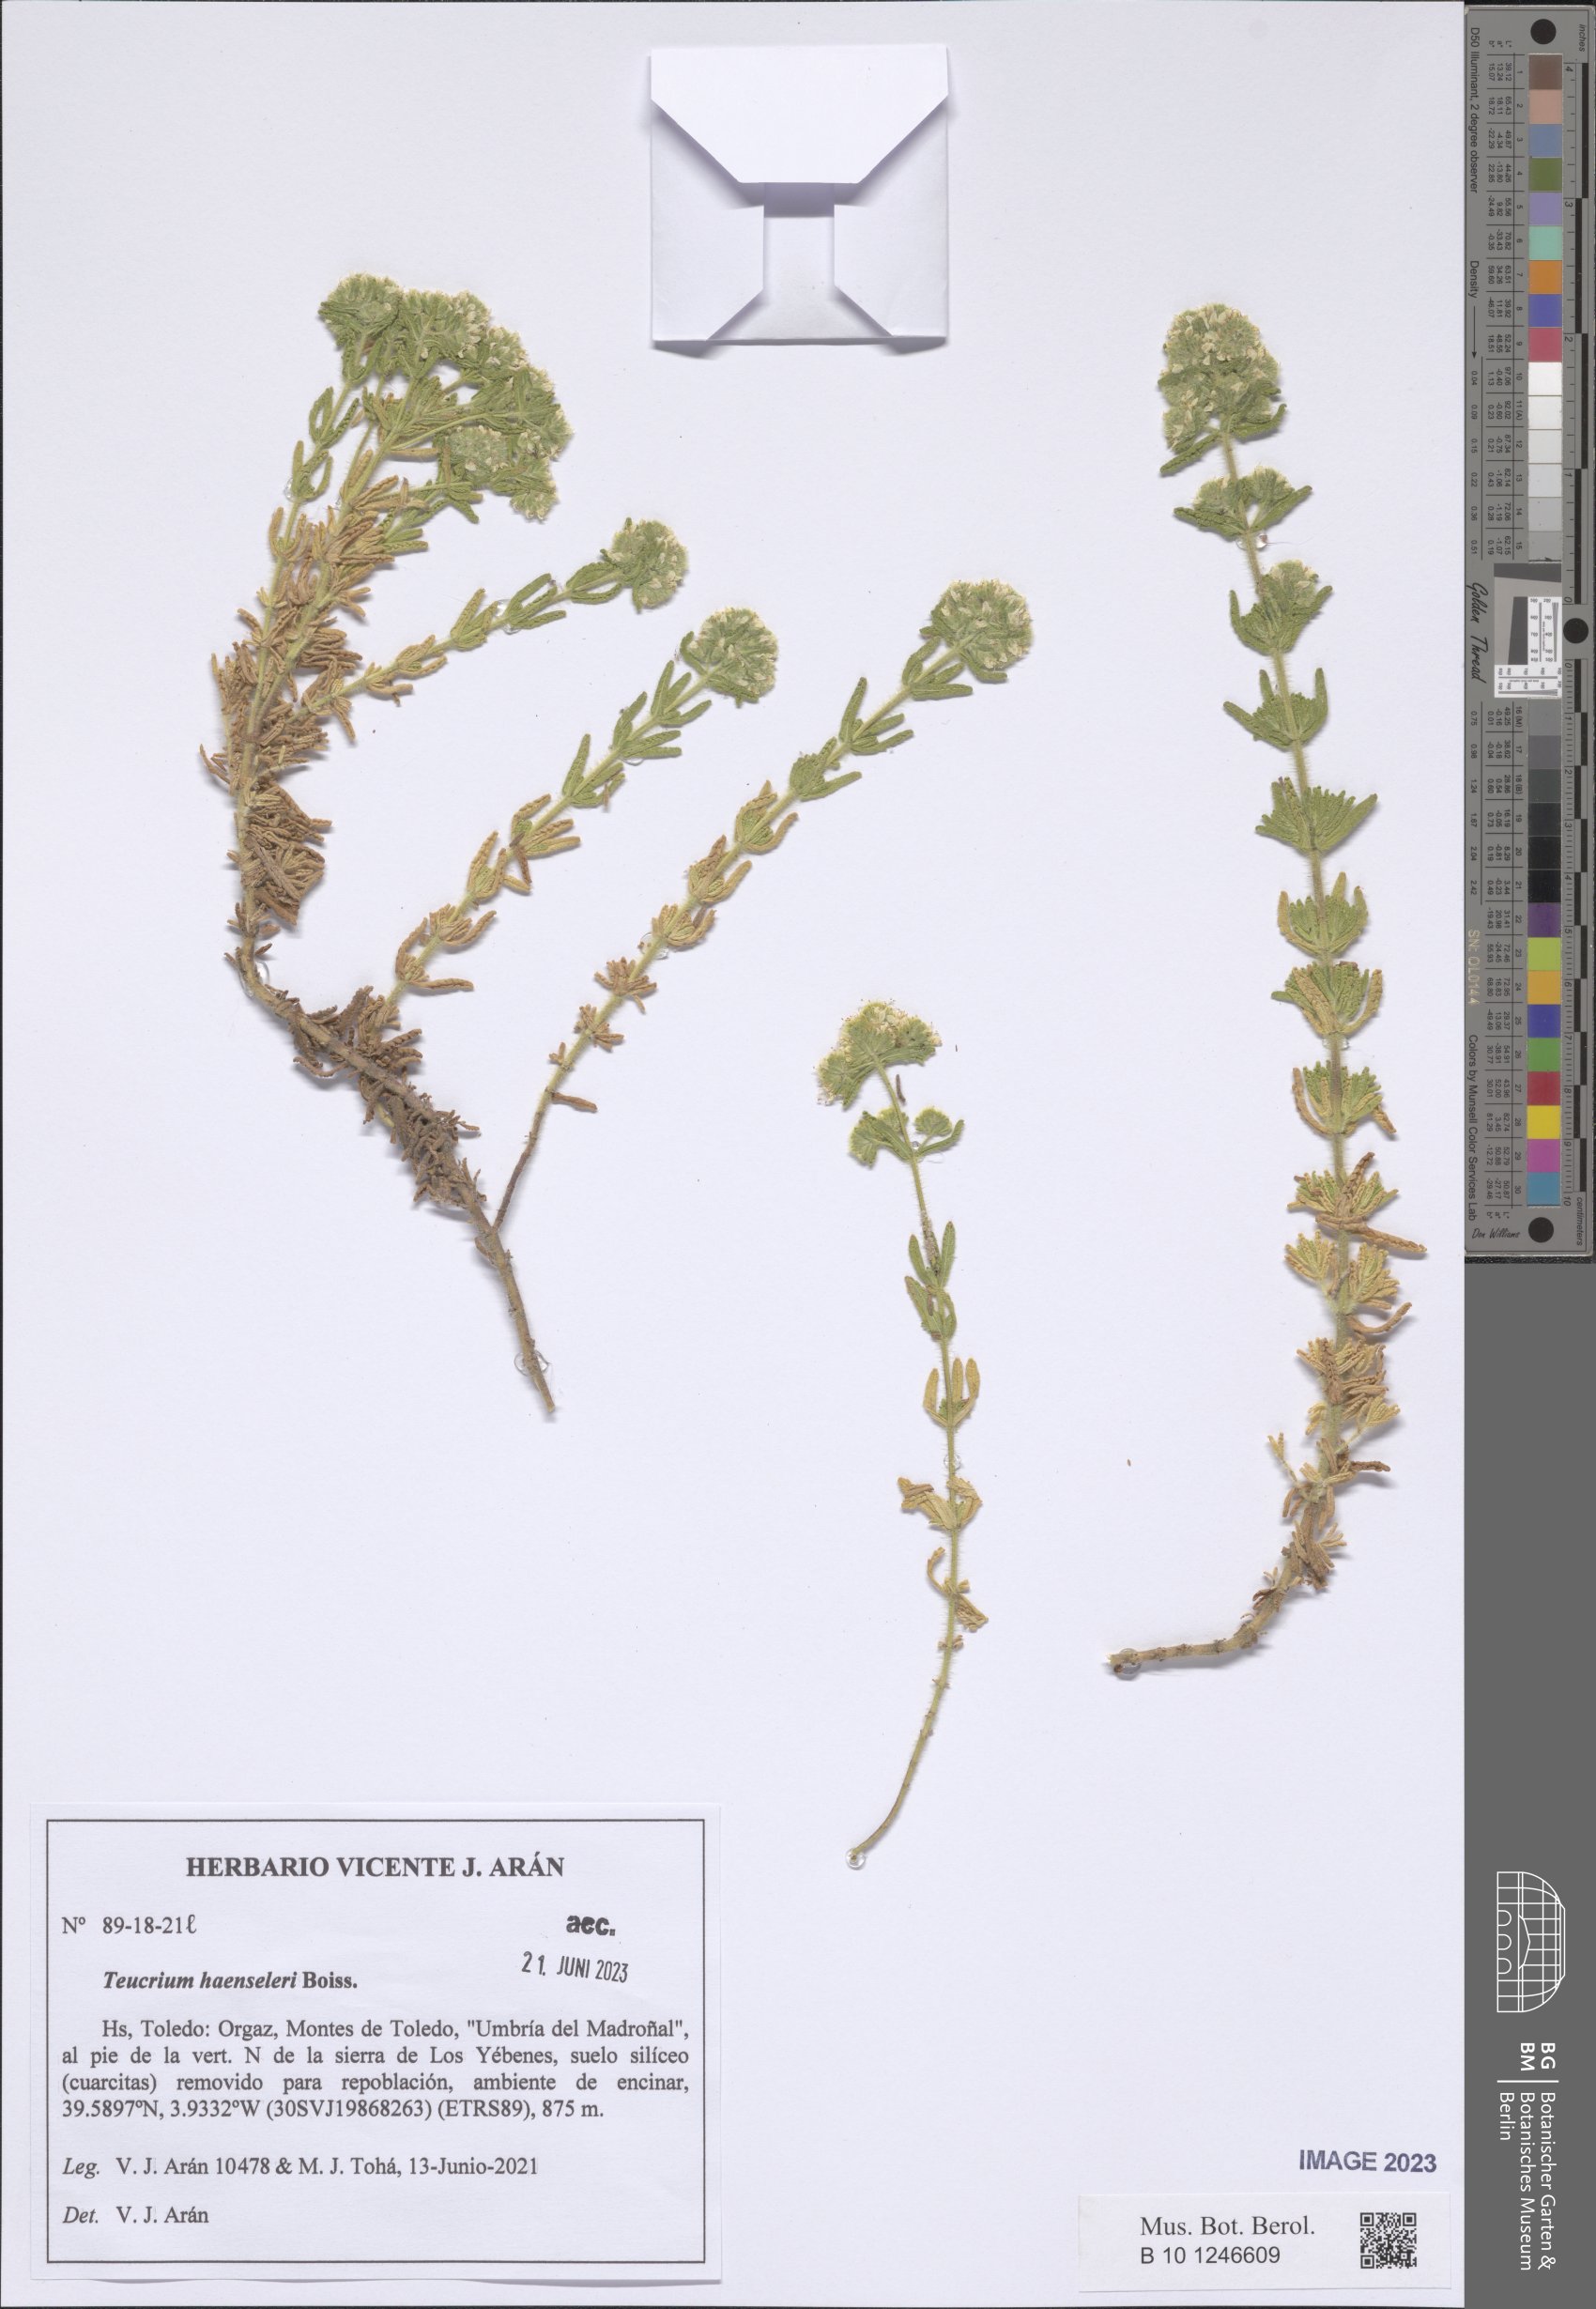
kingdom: Plantae
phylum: Tracheophyta
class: Magnoliopsida
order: Lamiales
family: Lamiaceae
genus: Teucrium
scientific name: Teucrium haenseleri
